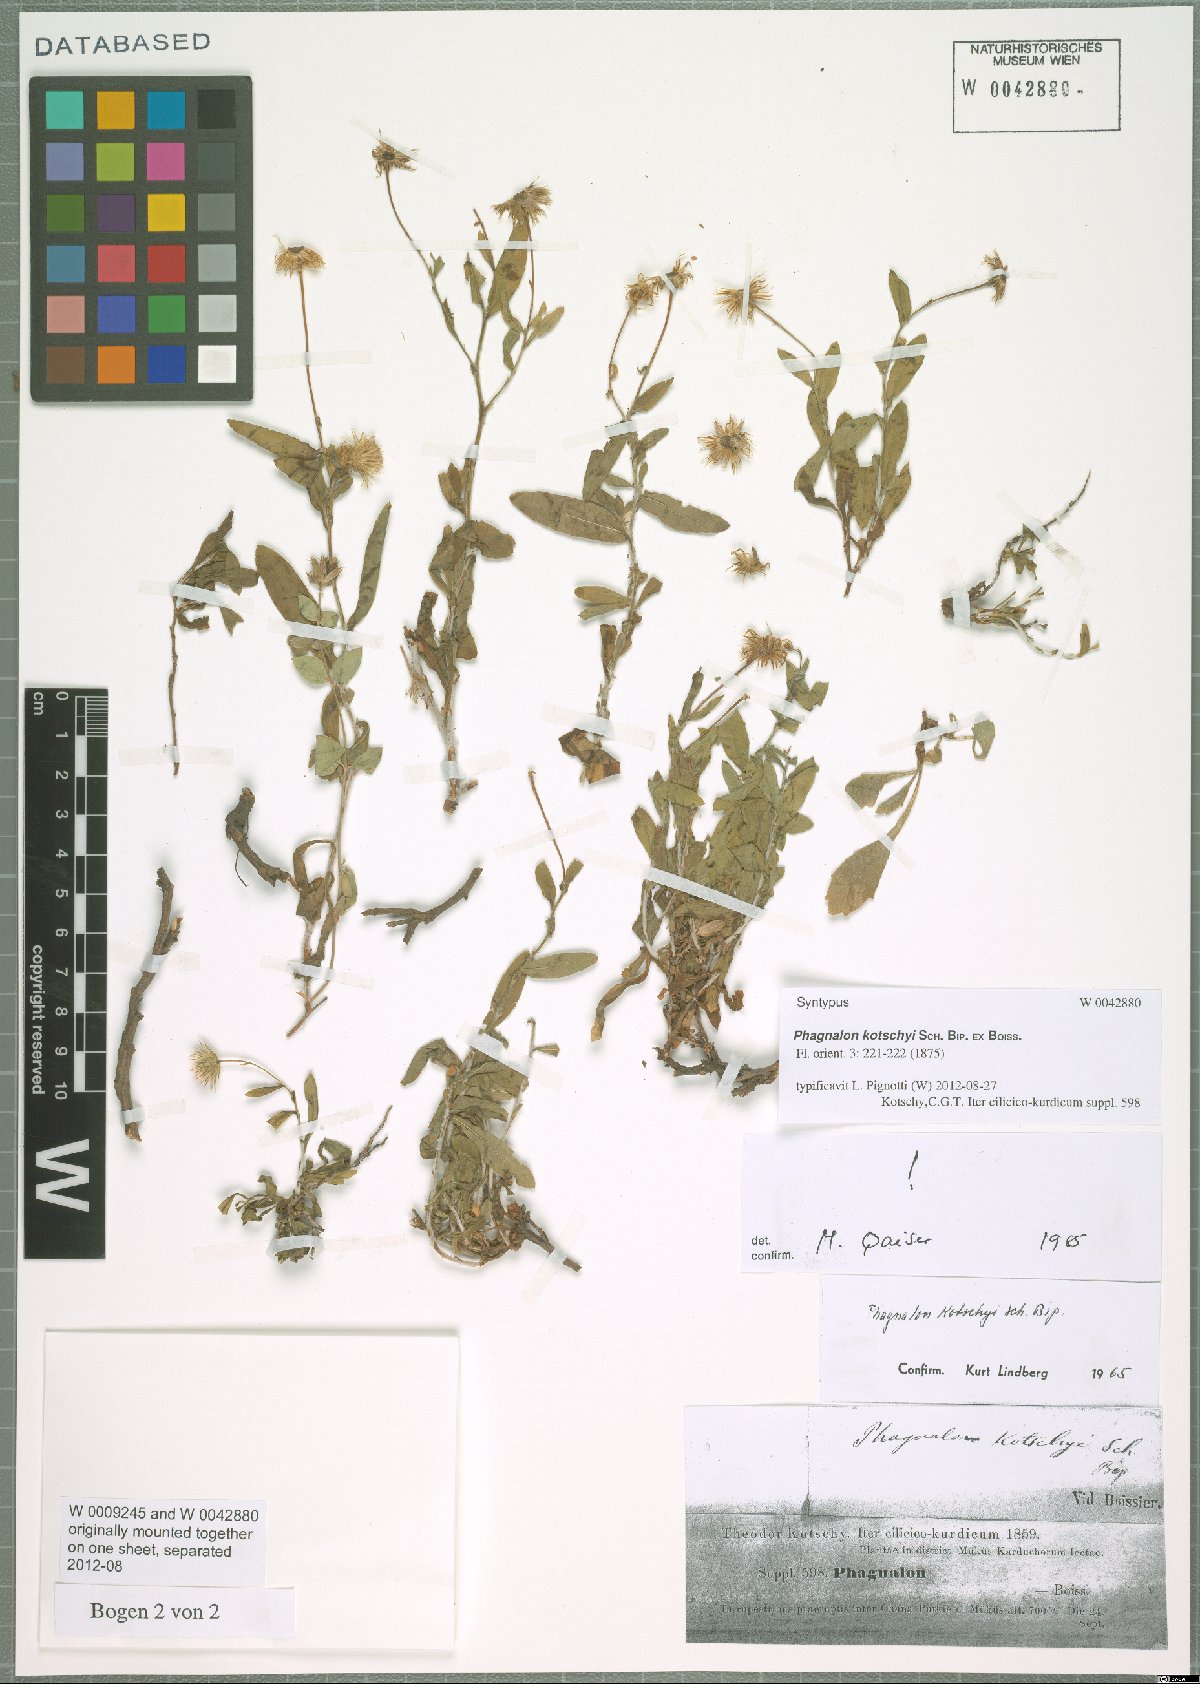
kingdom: Plantae
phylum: Tracheophyta
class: Magnoliopsida
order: Asterales
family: Asteraceae
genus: Phagnalon
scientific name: Phagnalon kotschyi
